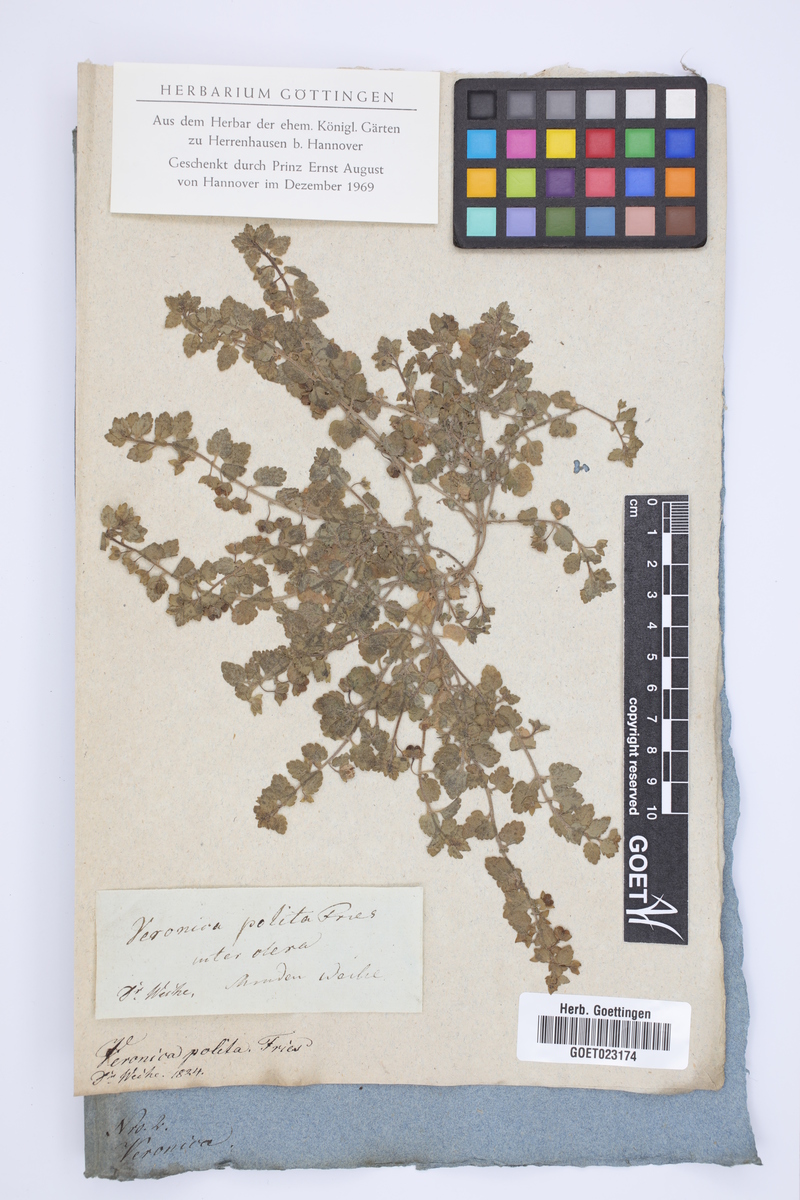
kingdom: Plantae
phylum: Tracheophyta
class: Magnoliopsida
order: Lamiales
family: Plantaginaceae
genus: Veronica
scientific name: Veronica polita
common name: Grey field-speedwell
